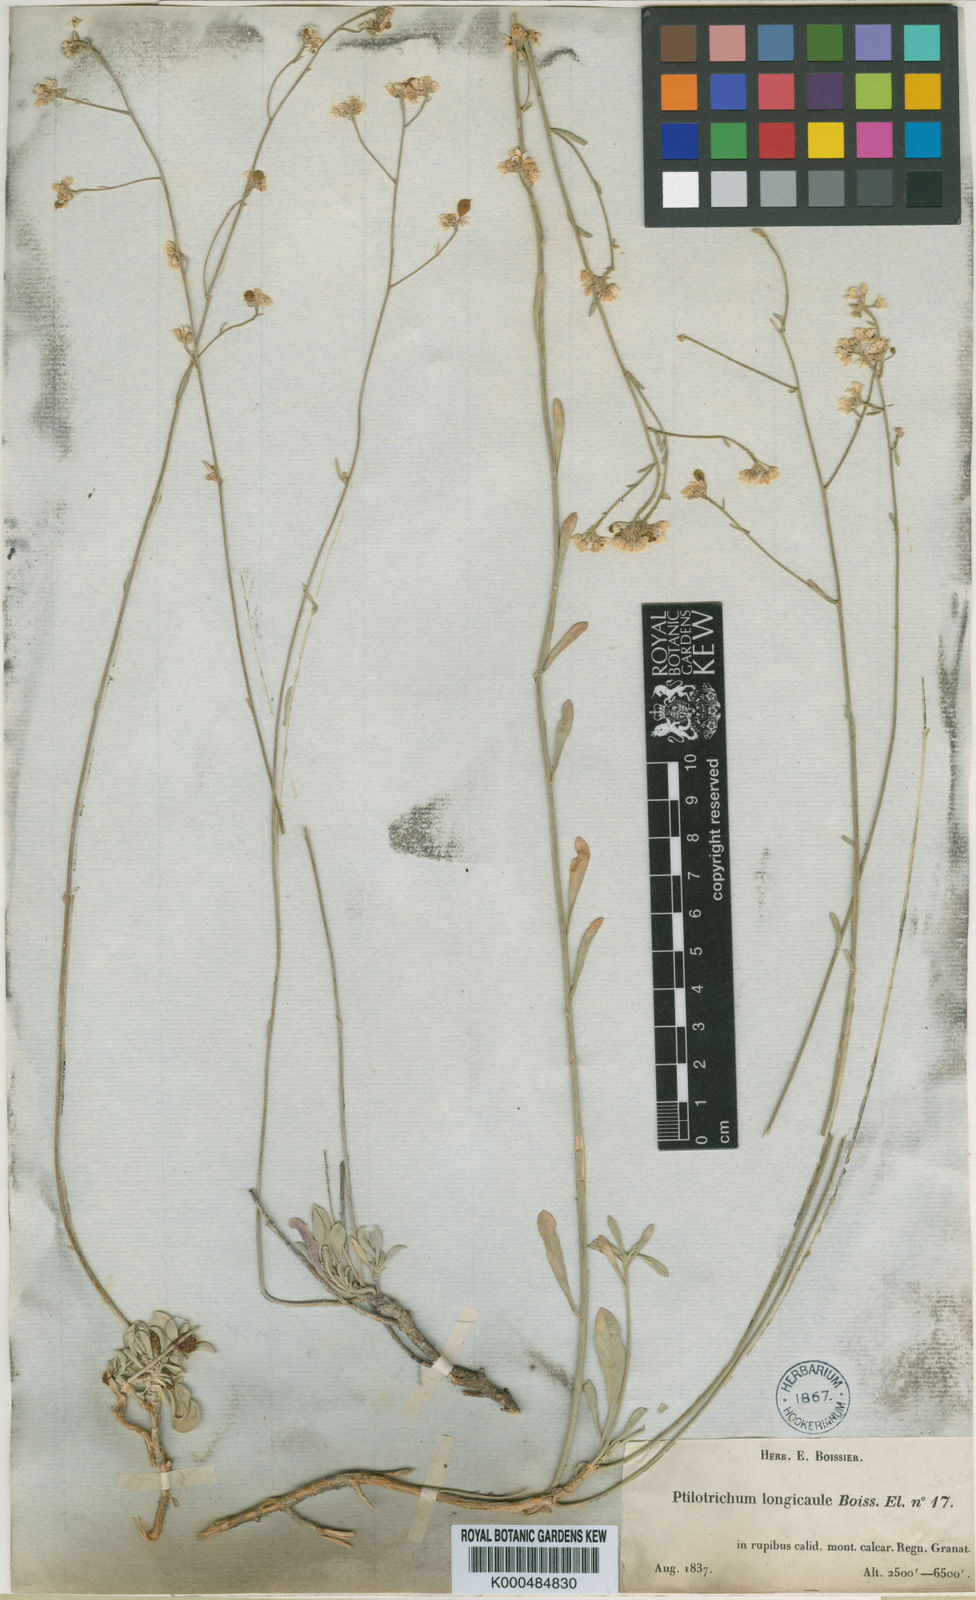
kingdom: Plantae
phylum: Tracheophyta
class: Magnoliopsida
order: Brassicales
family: Brassicaceae
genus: Hormathophylla
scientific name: Hormathophylla longicaulis
